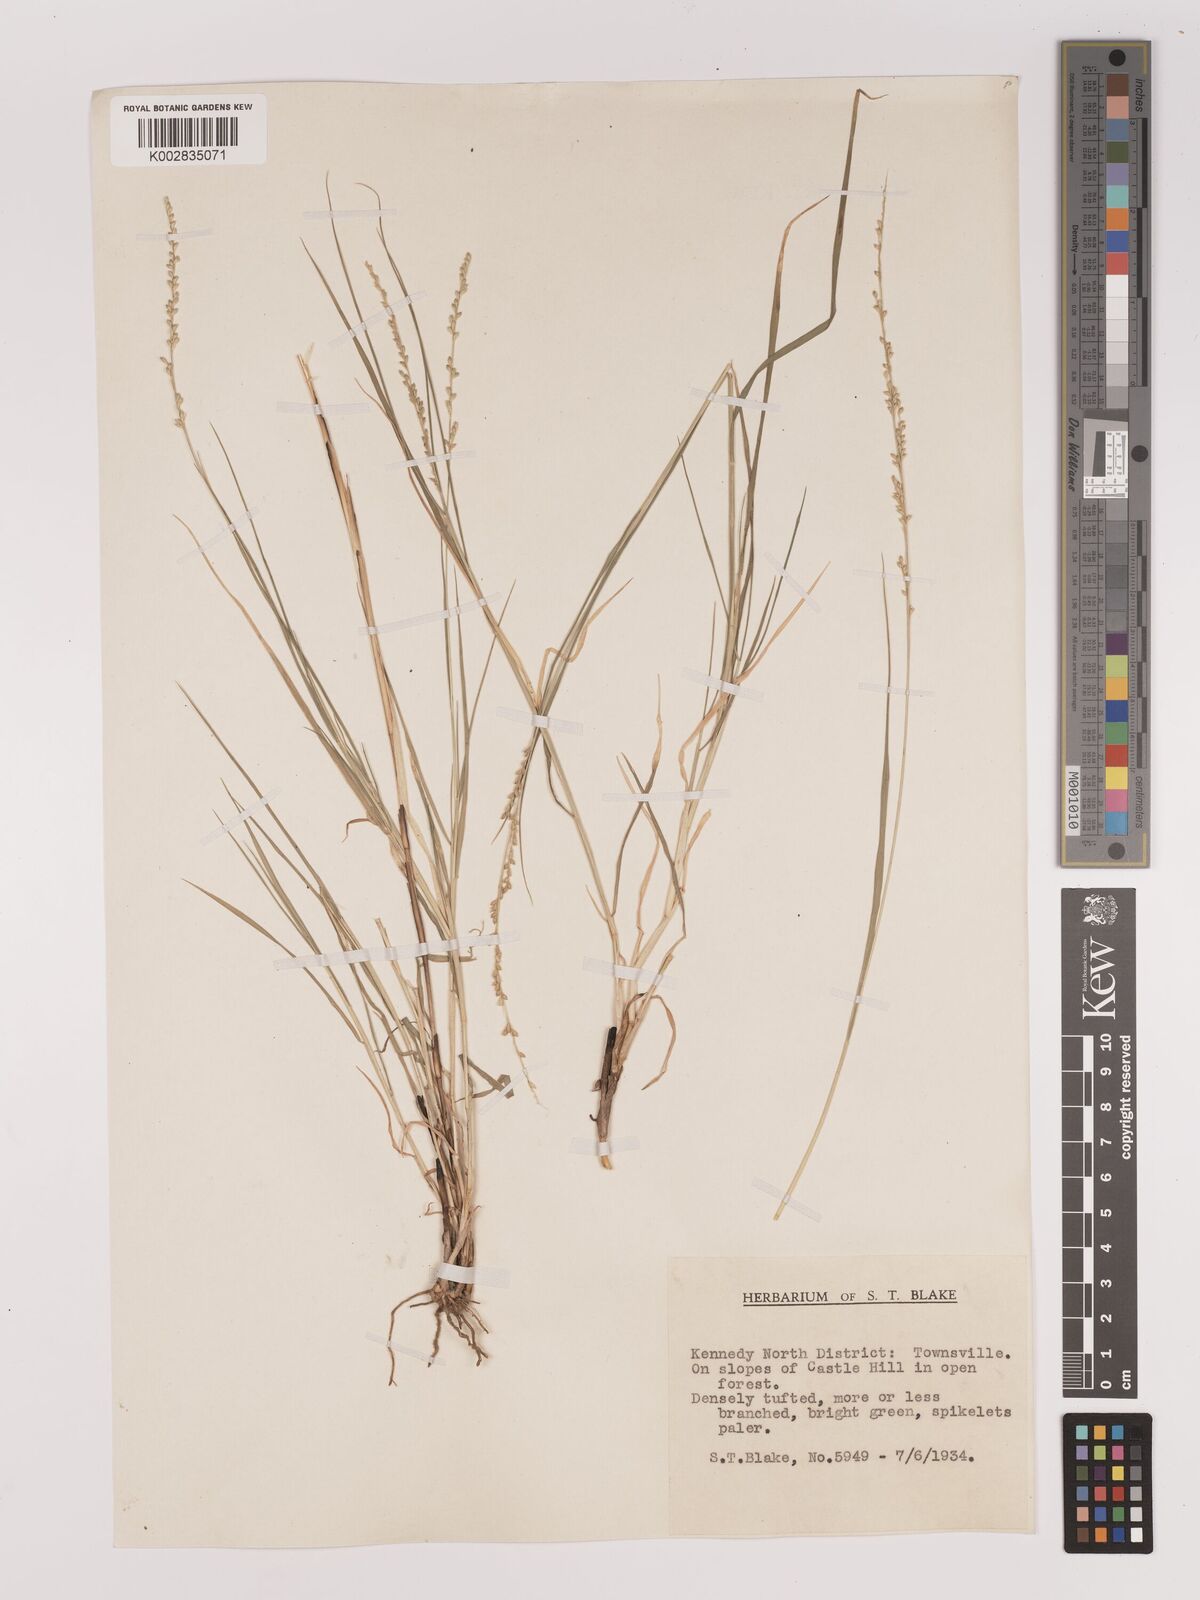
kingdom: Plantae
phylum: Tracheophyta
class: Liliopsida
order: Poales
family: Poaceae
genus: Setaria
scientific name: Setaria
